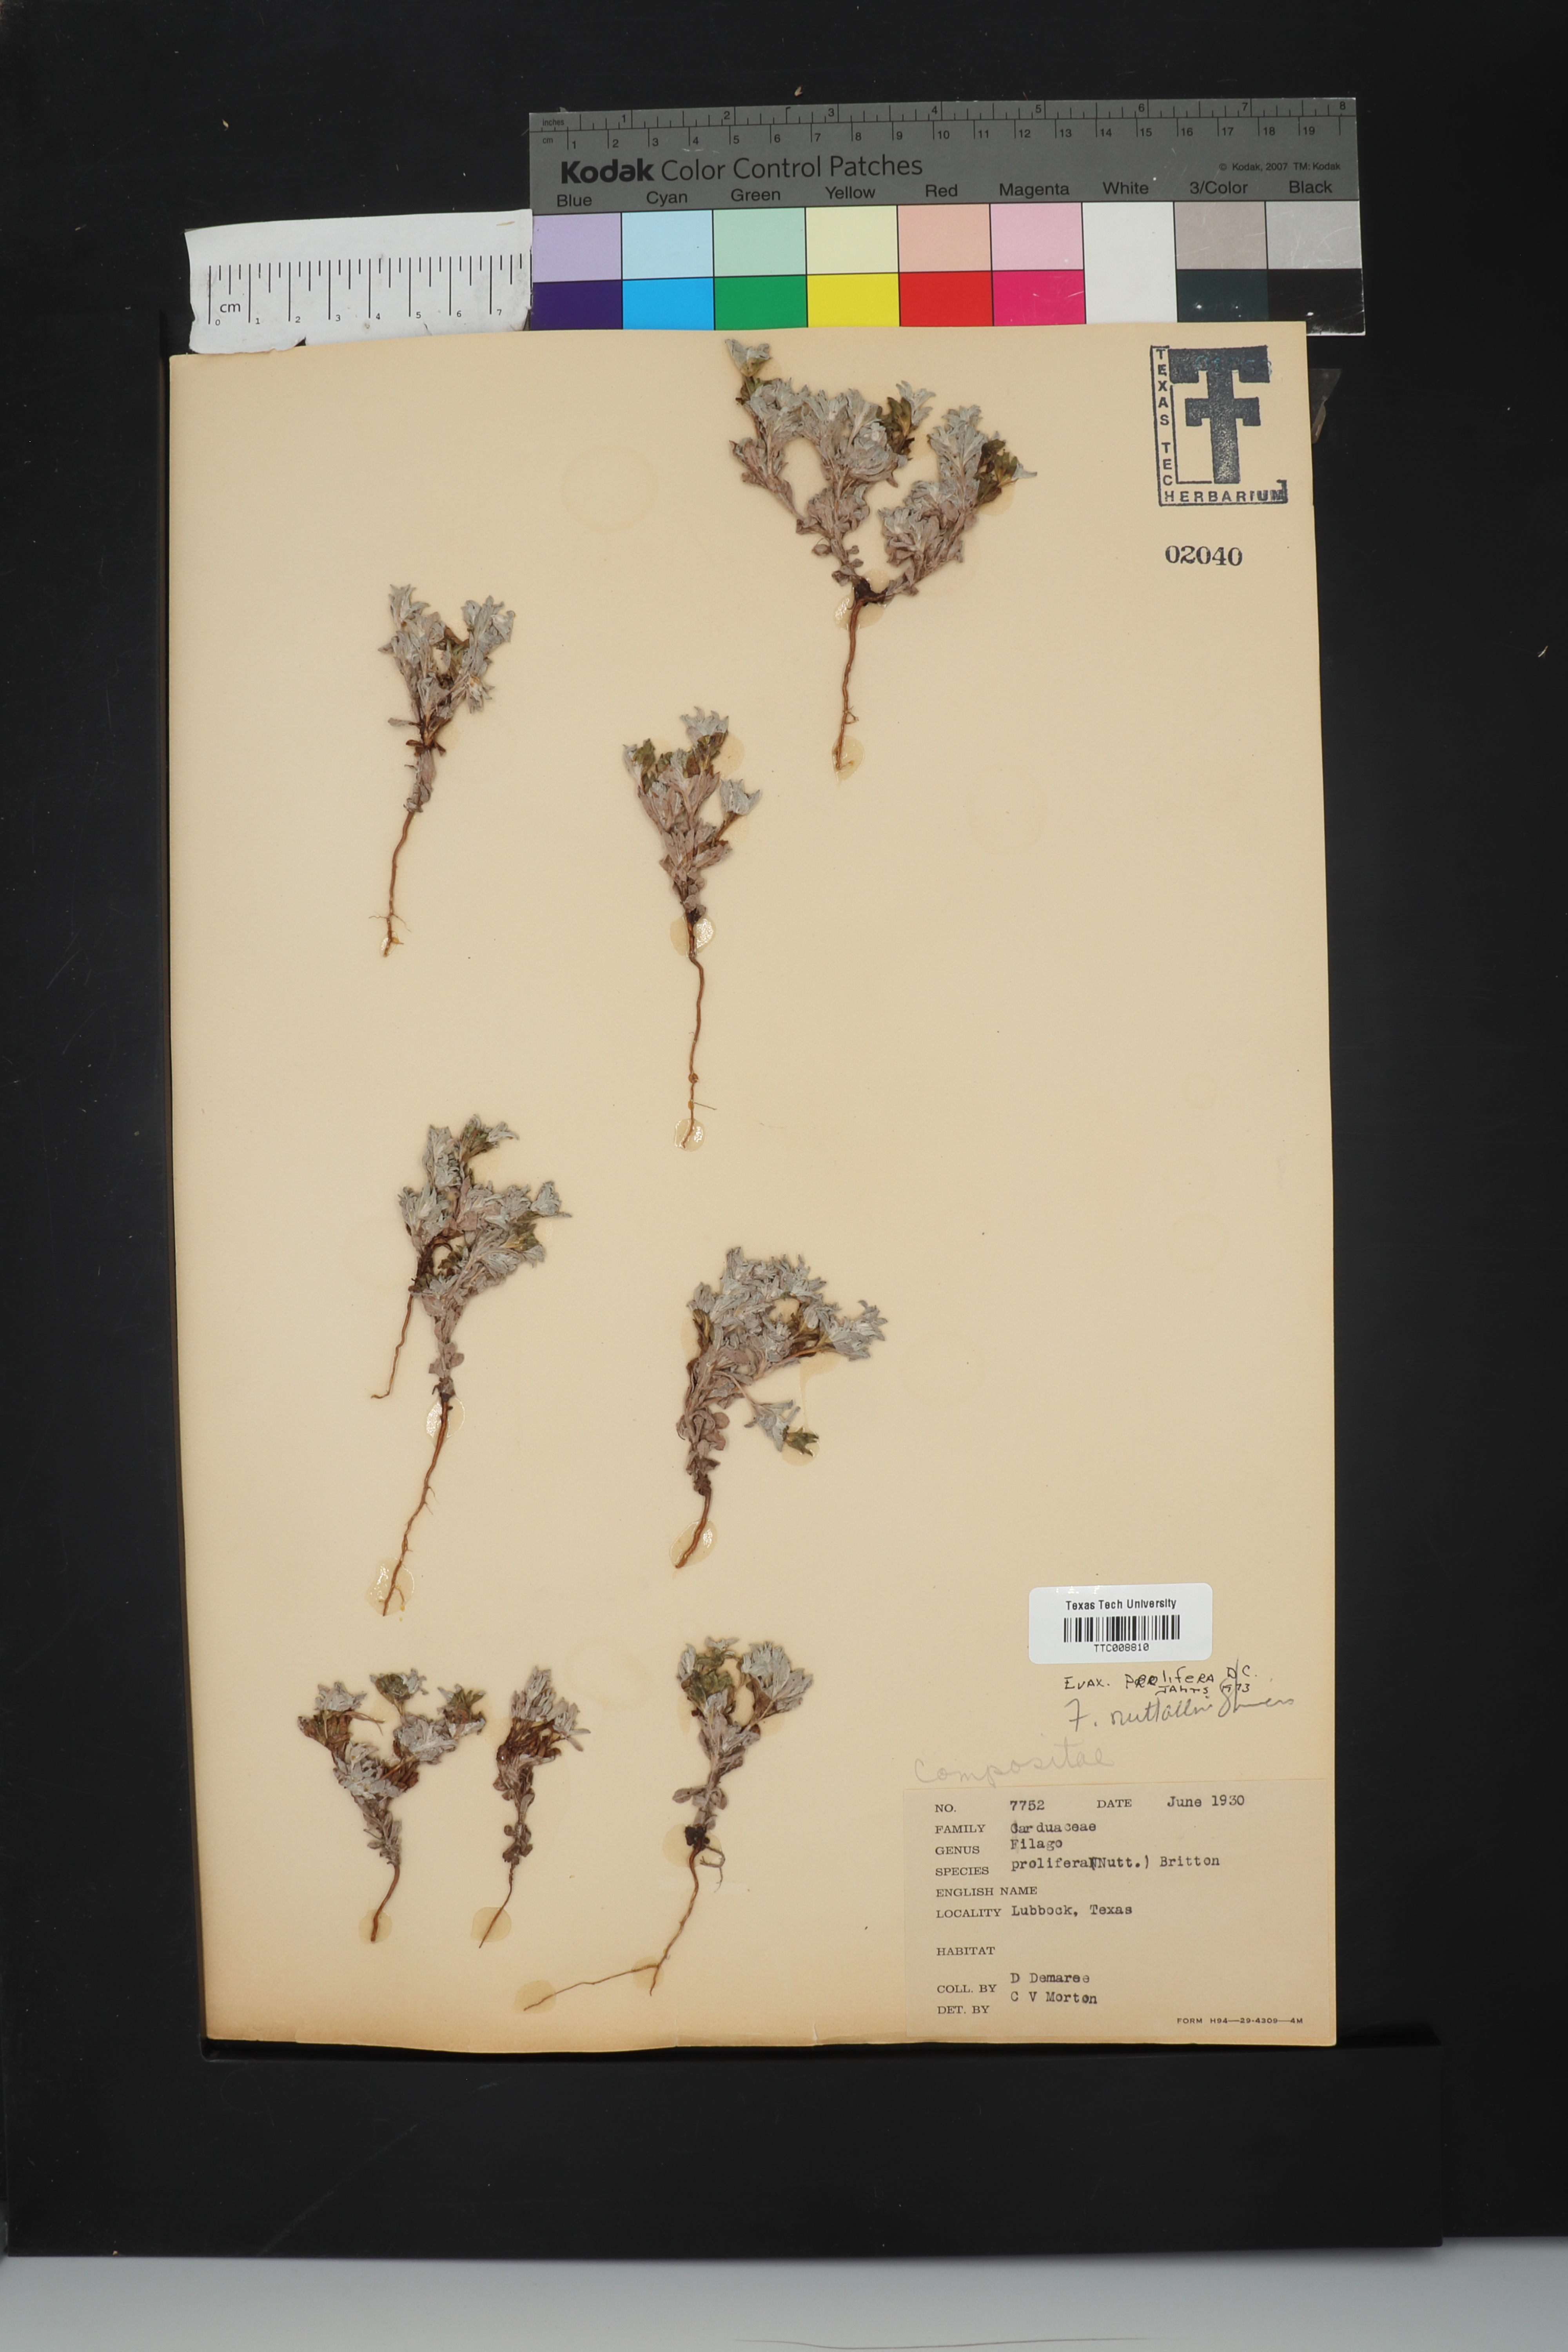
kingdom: Plantae
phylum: Tracheophyta
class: Magnoliopsida
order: Asterales
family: Asteraceae
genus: Diaperia
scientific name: Diaperia prolifera
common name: Big-head rabbit-tobacco
